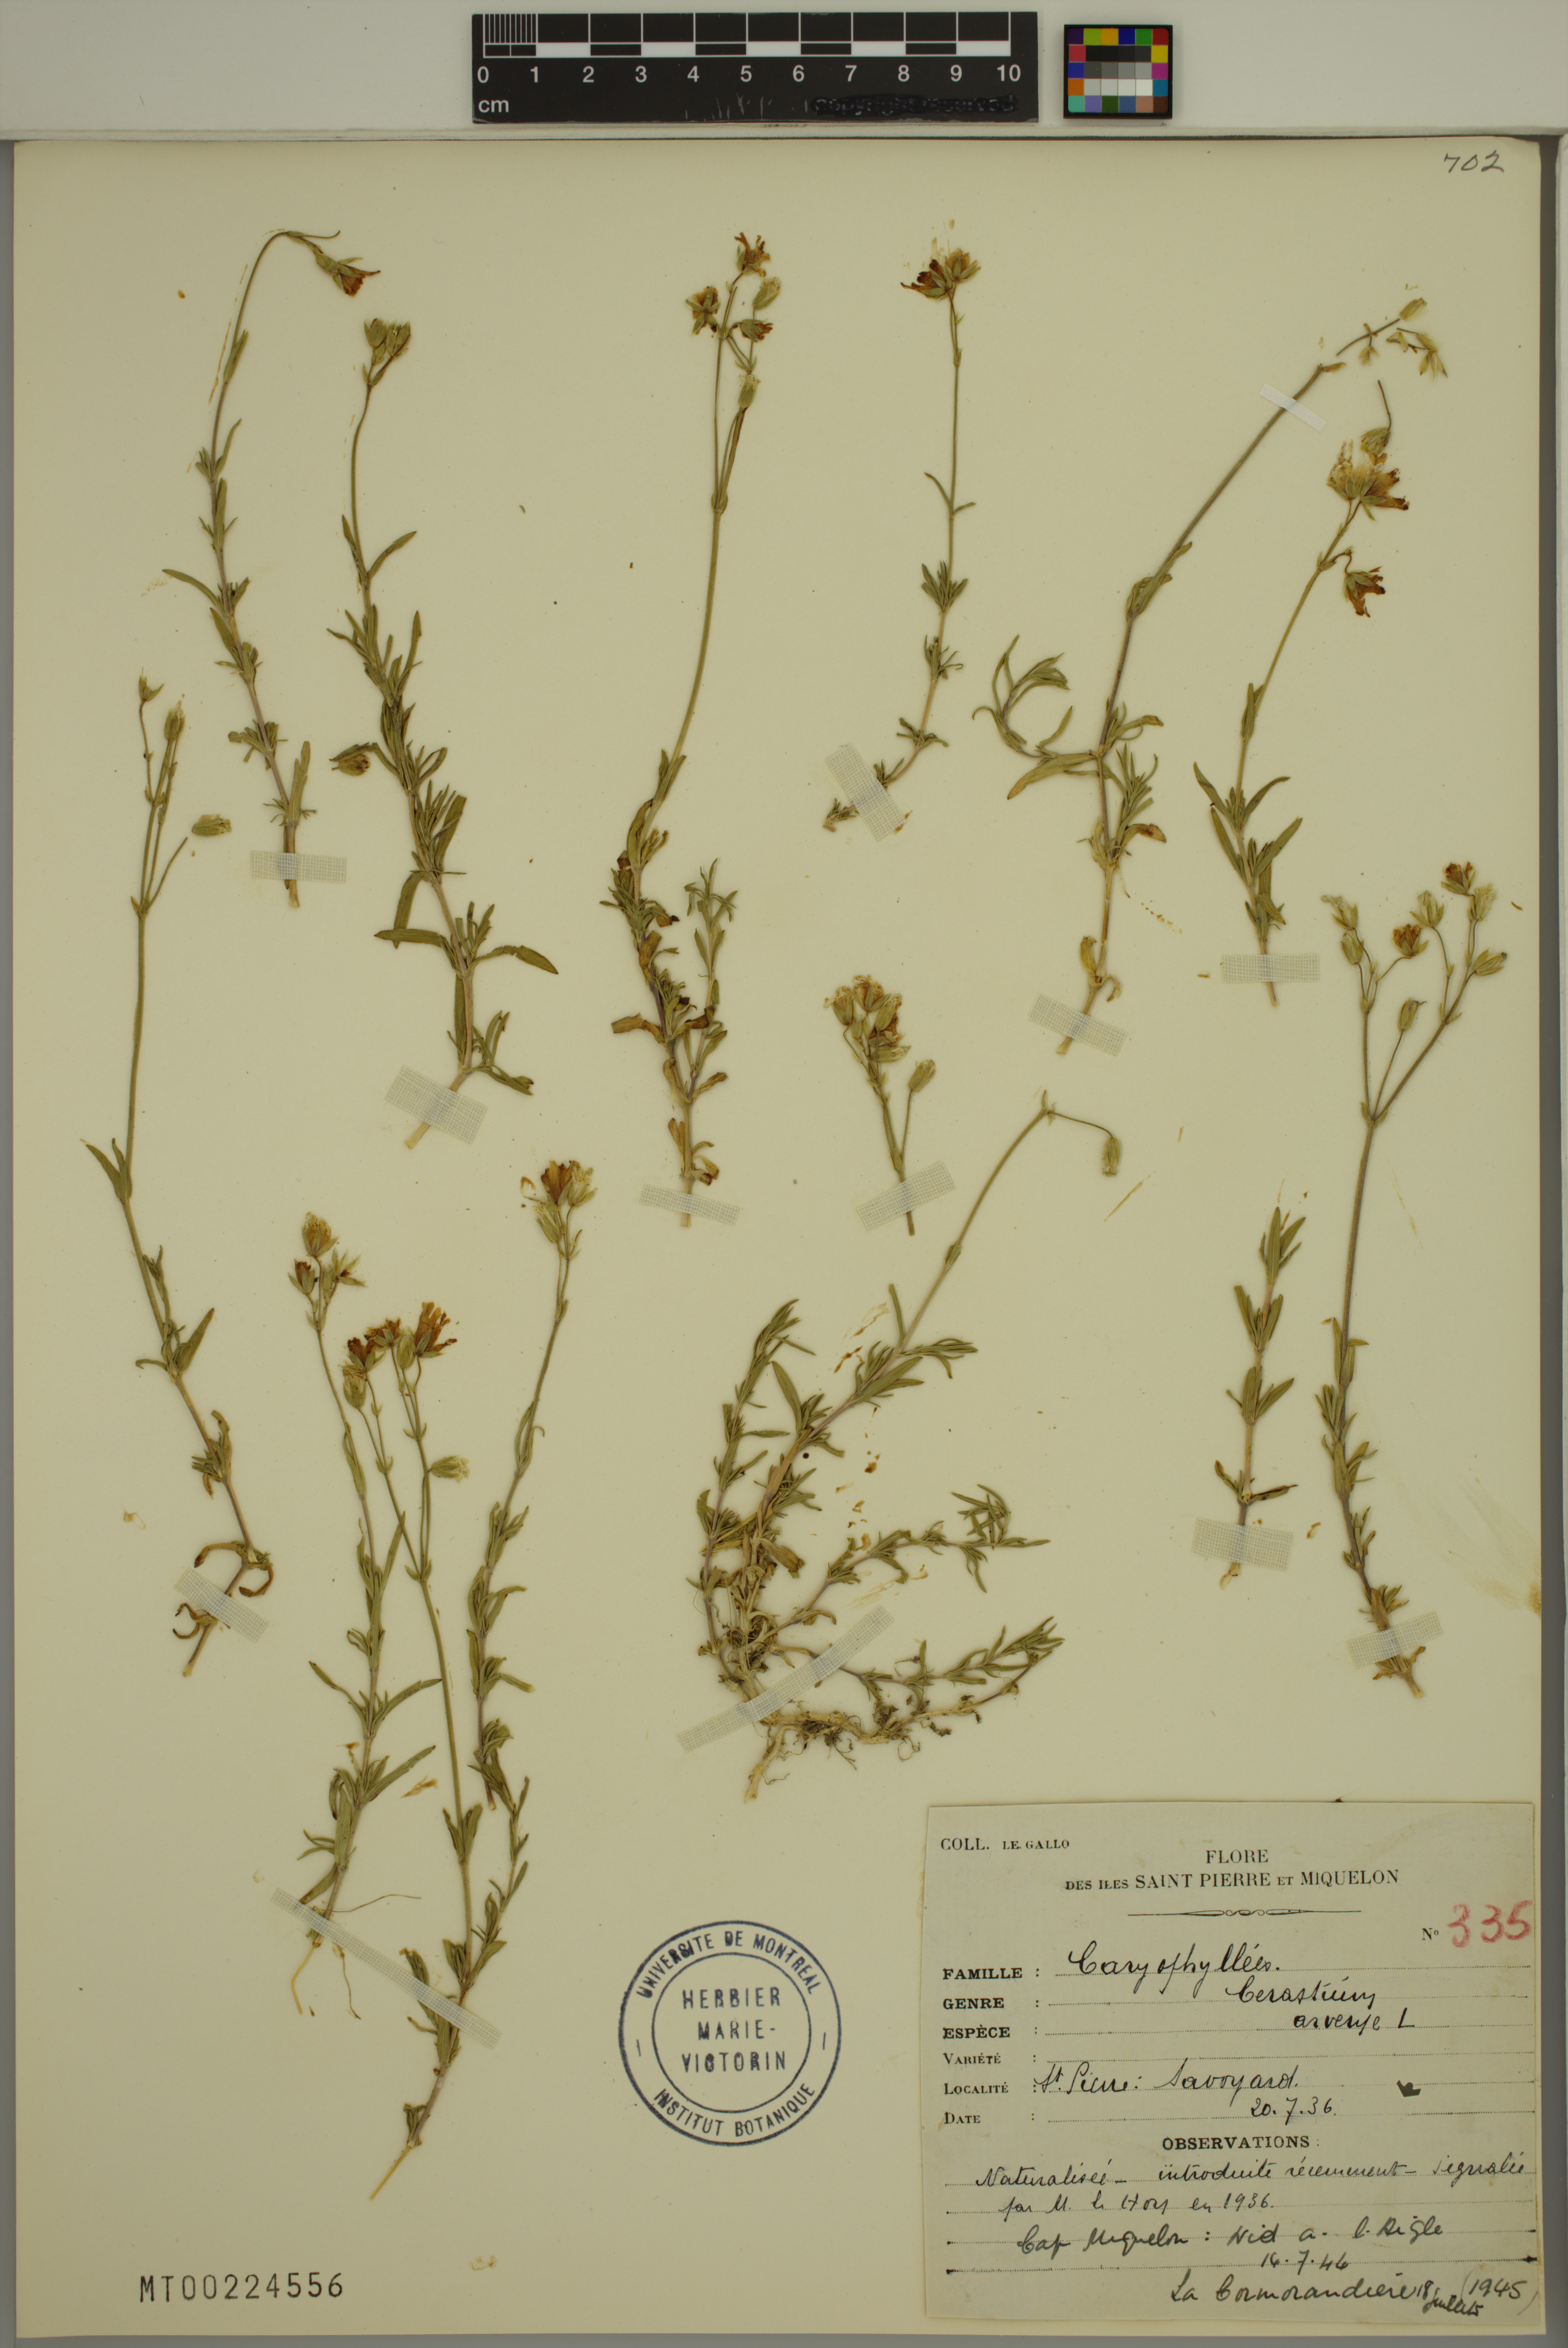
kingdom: Plantae
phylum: Tracheophyta
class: Magnoliopsida
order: Caryophyllales
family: Caryophyllaceae
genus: Cerastium
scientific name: Cerastium arvense
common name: Field mouse-ear
